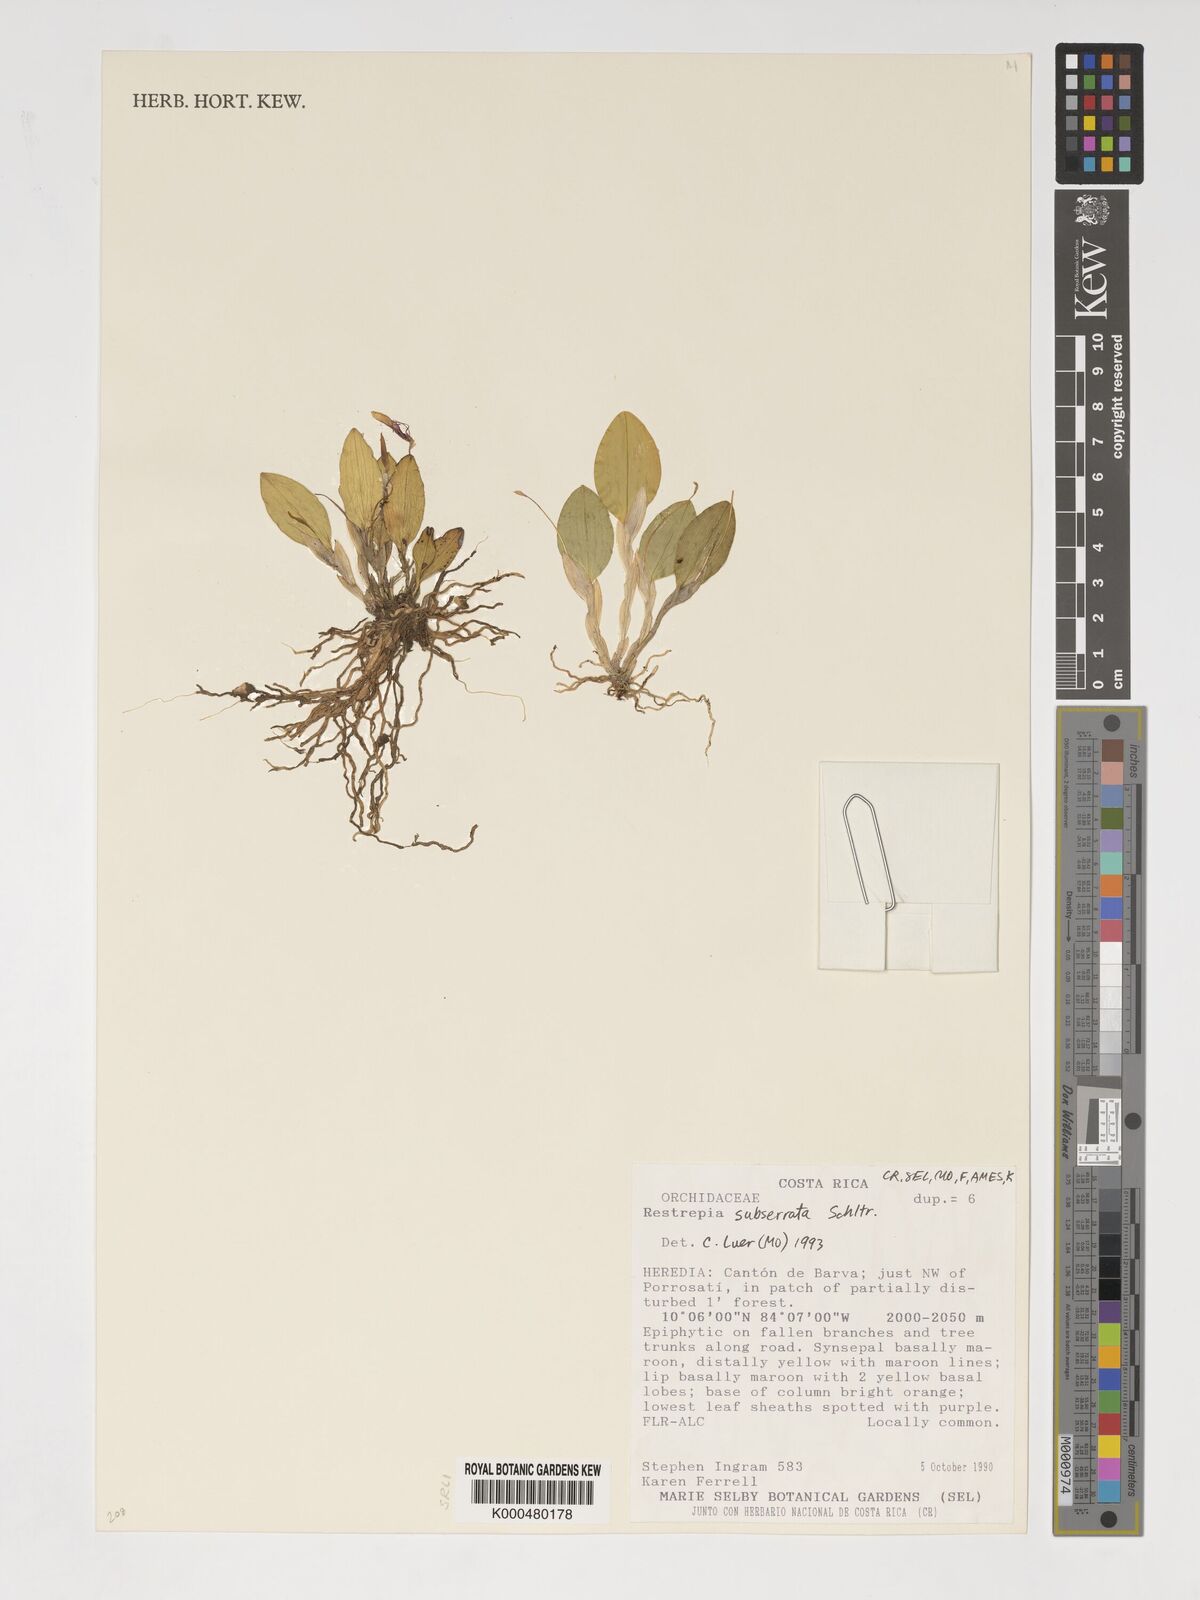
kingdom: Plantae
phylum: Tracheophyta
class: Liliopsida
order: Asparagales
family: Orchidaceae
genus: Pterostylis
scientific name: Pterostylis
